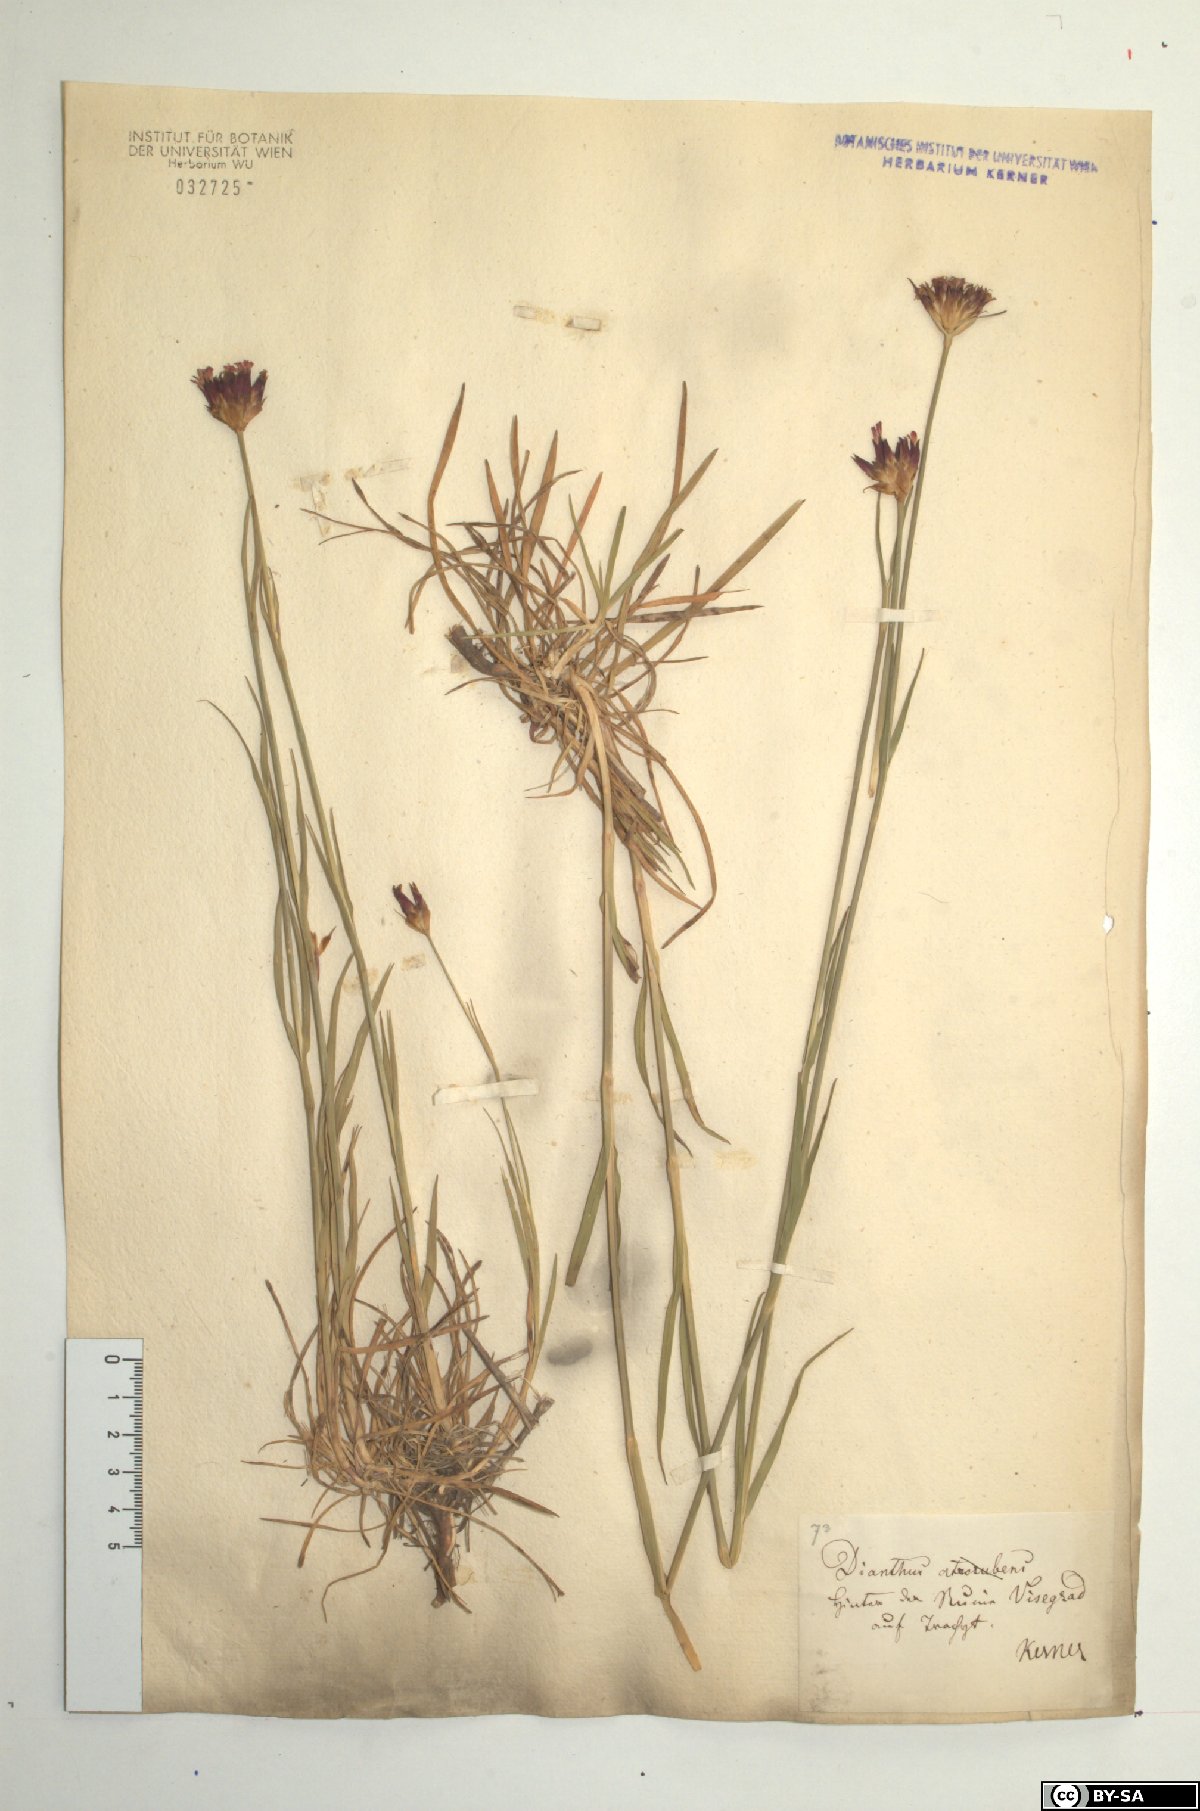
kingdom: Plantae
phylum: Tracheophyta
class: Magnoliopsida
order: Caryophyllales
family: Caryophyllaceae
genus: Dianthus
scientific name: Dianthus pontederae
